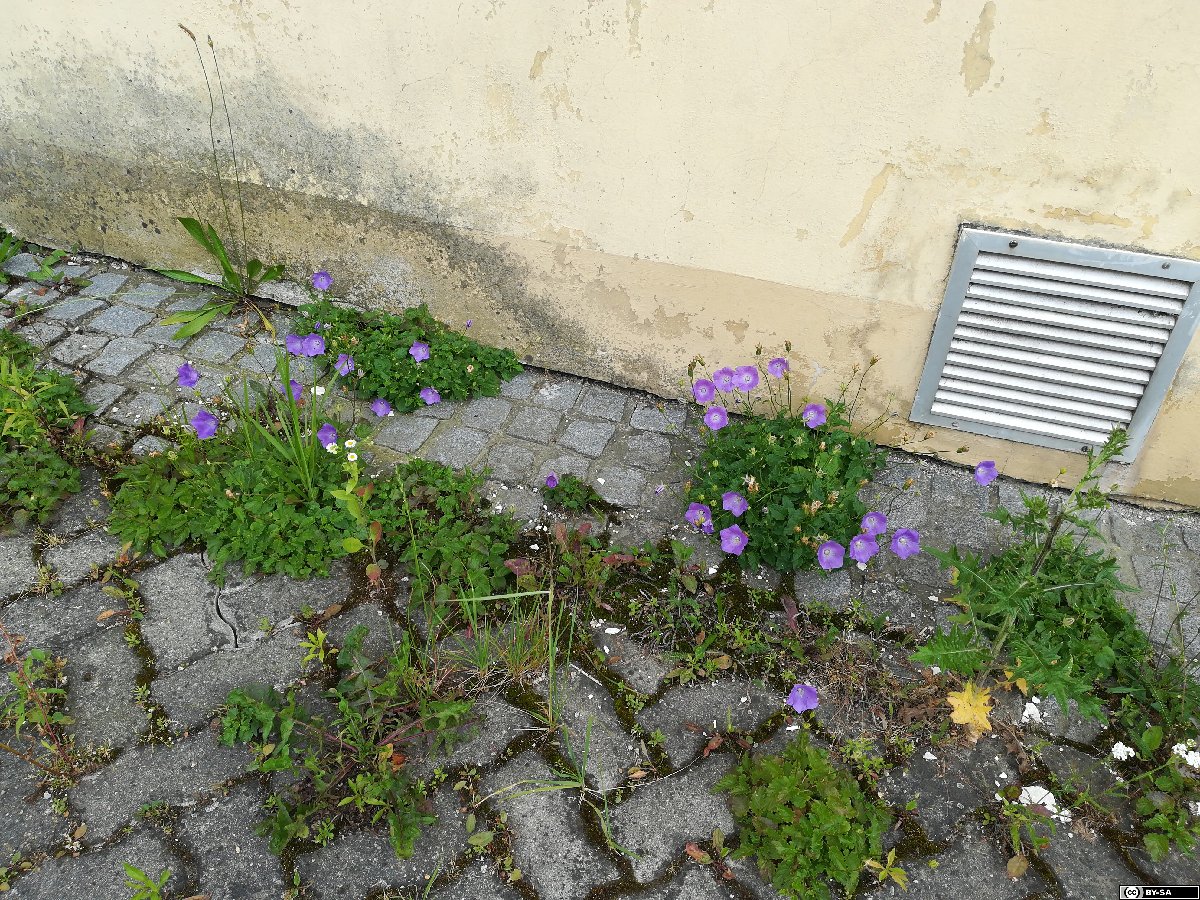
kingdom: Plantae
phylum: Tracheophyta
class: Magnoliopsida
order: Asterales
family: Campanulaceae
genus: Campanula
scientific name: Campanula carpatica
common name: Tussock bellflower
